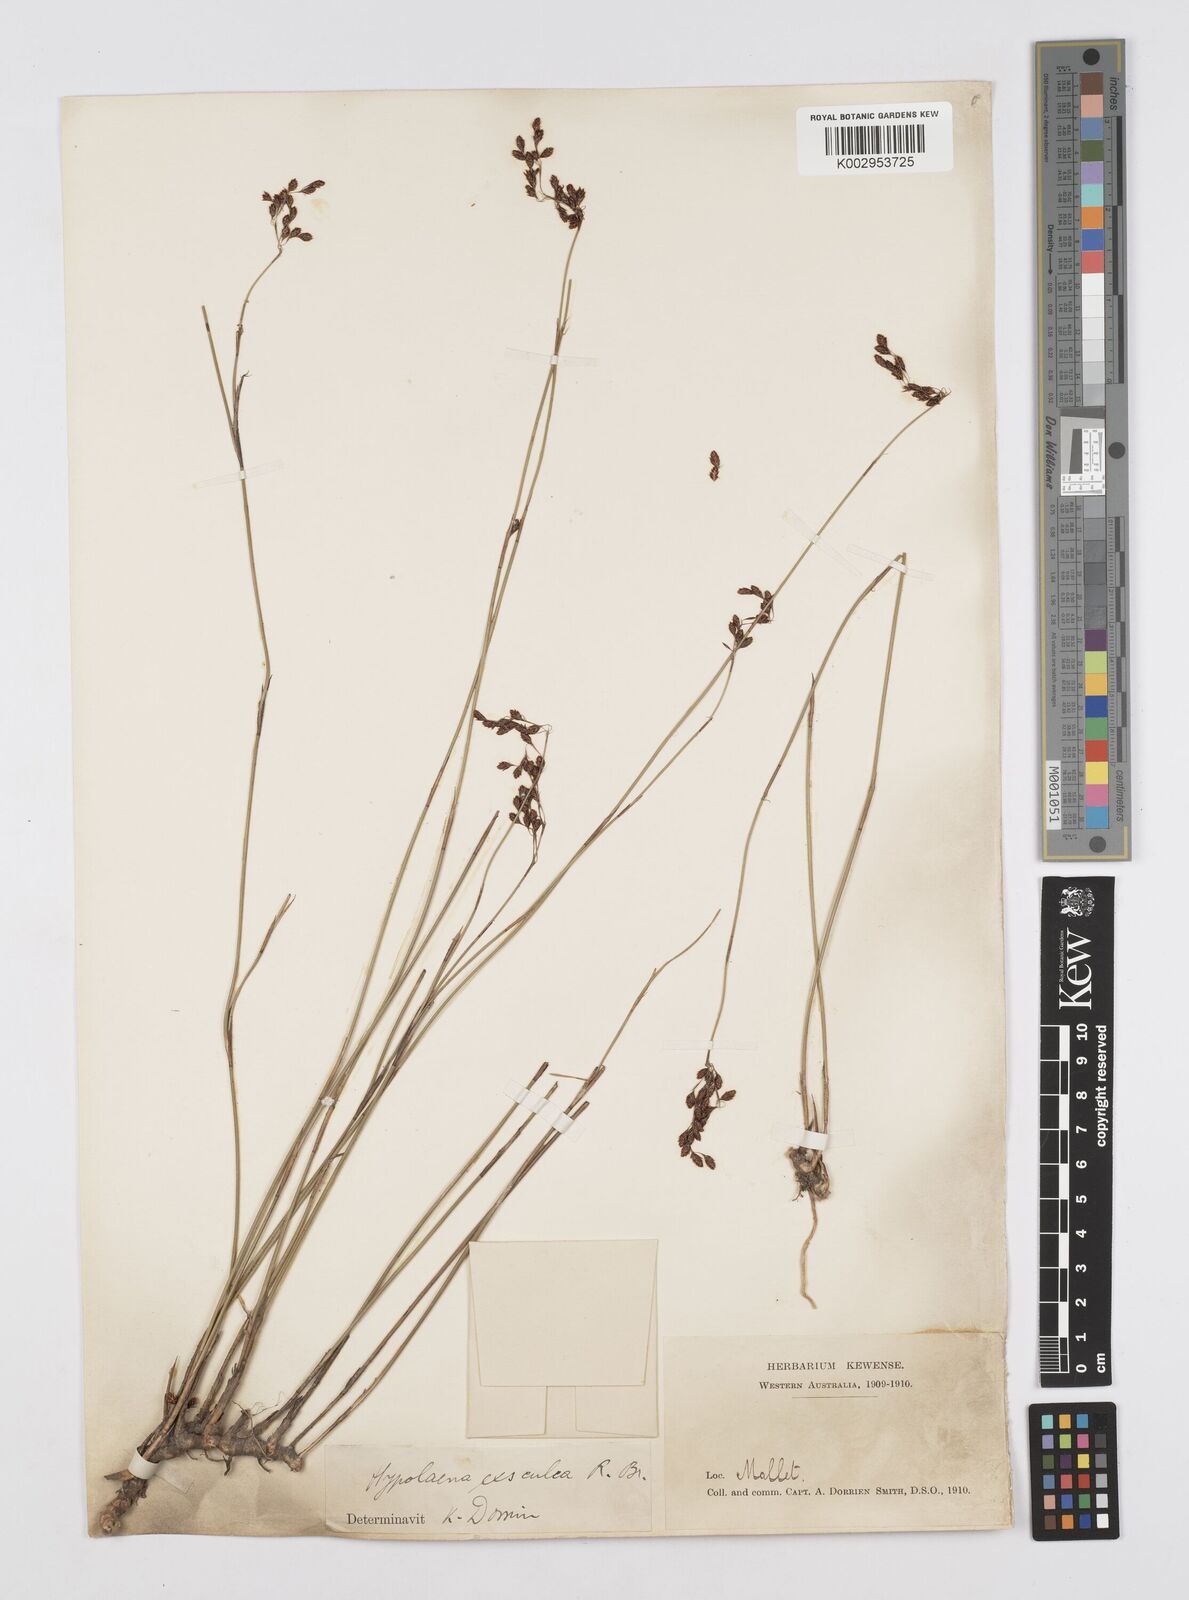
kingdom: Plantae
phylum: Tracheophyta
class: Liliopsida
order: Poales
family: Restionaceae
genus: Hypolaena
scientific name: Hypolaena exsulca
